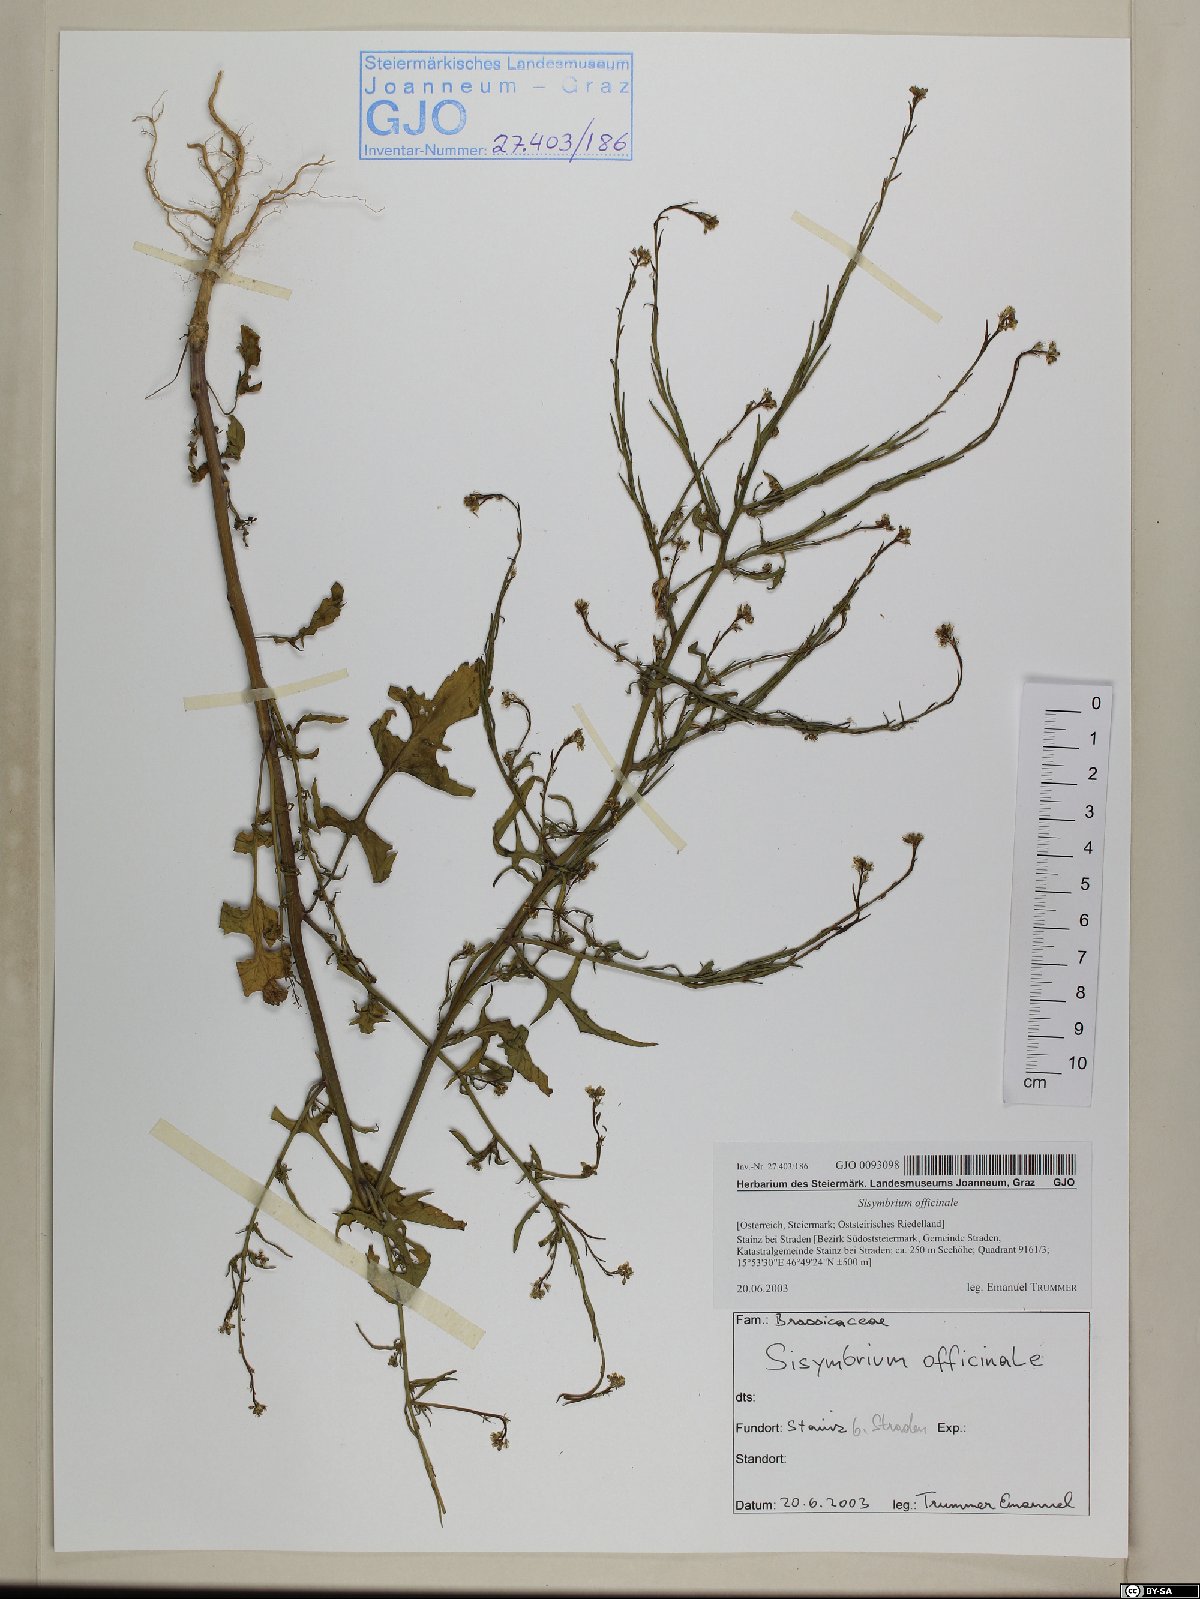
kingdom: Plantae
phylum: Tracheophyta
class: Magnoliopsida
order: Brassicales
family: Brassicaceae
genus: Sisymbrium
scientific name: Sisymbrium officinale
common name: Hedge mustard
